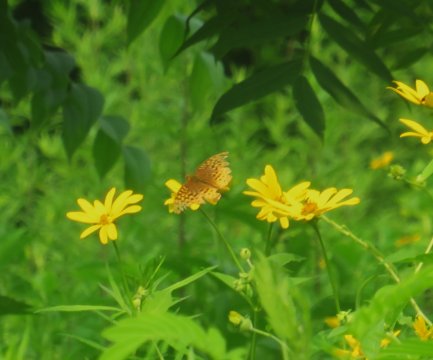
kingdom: Animalia
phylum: Arthropoda
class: Insecta
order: Lepidoptera
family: Nymphalidae
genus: Speyeria
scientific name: Speyeria cybele
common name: Great Spangled Fritillary
